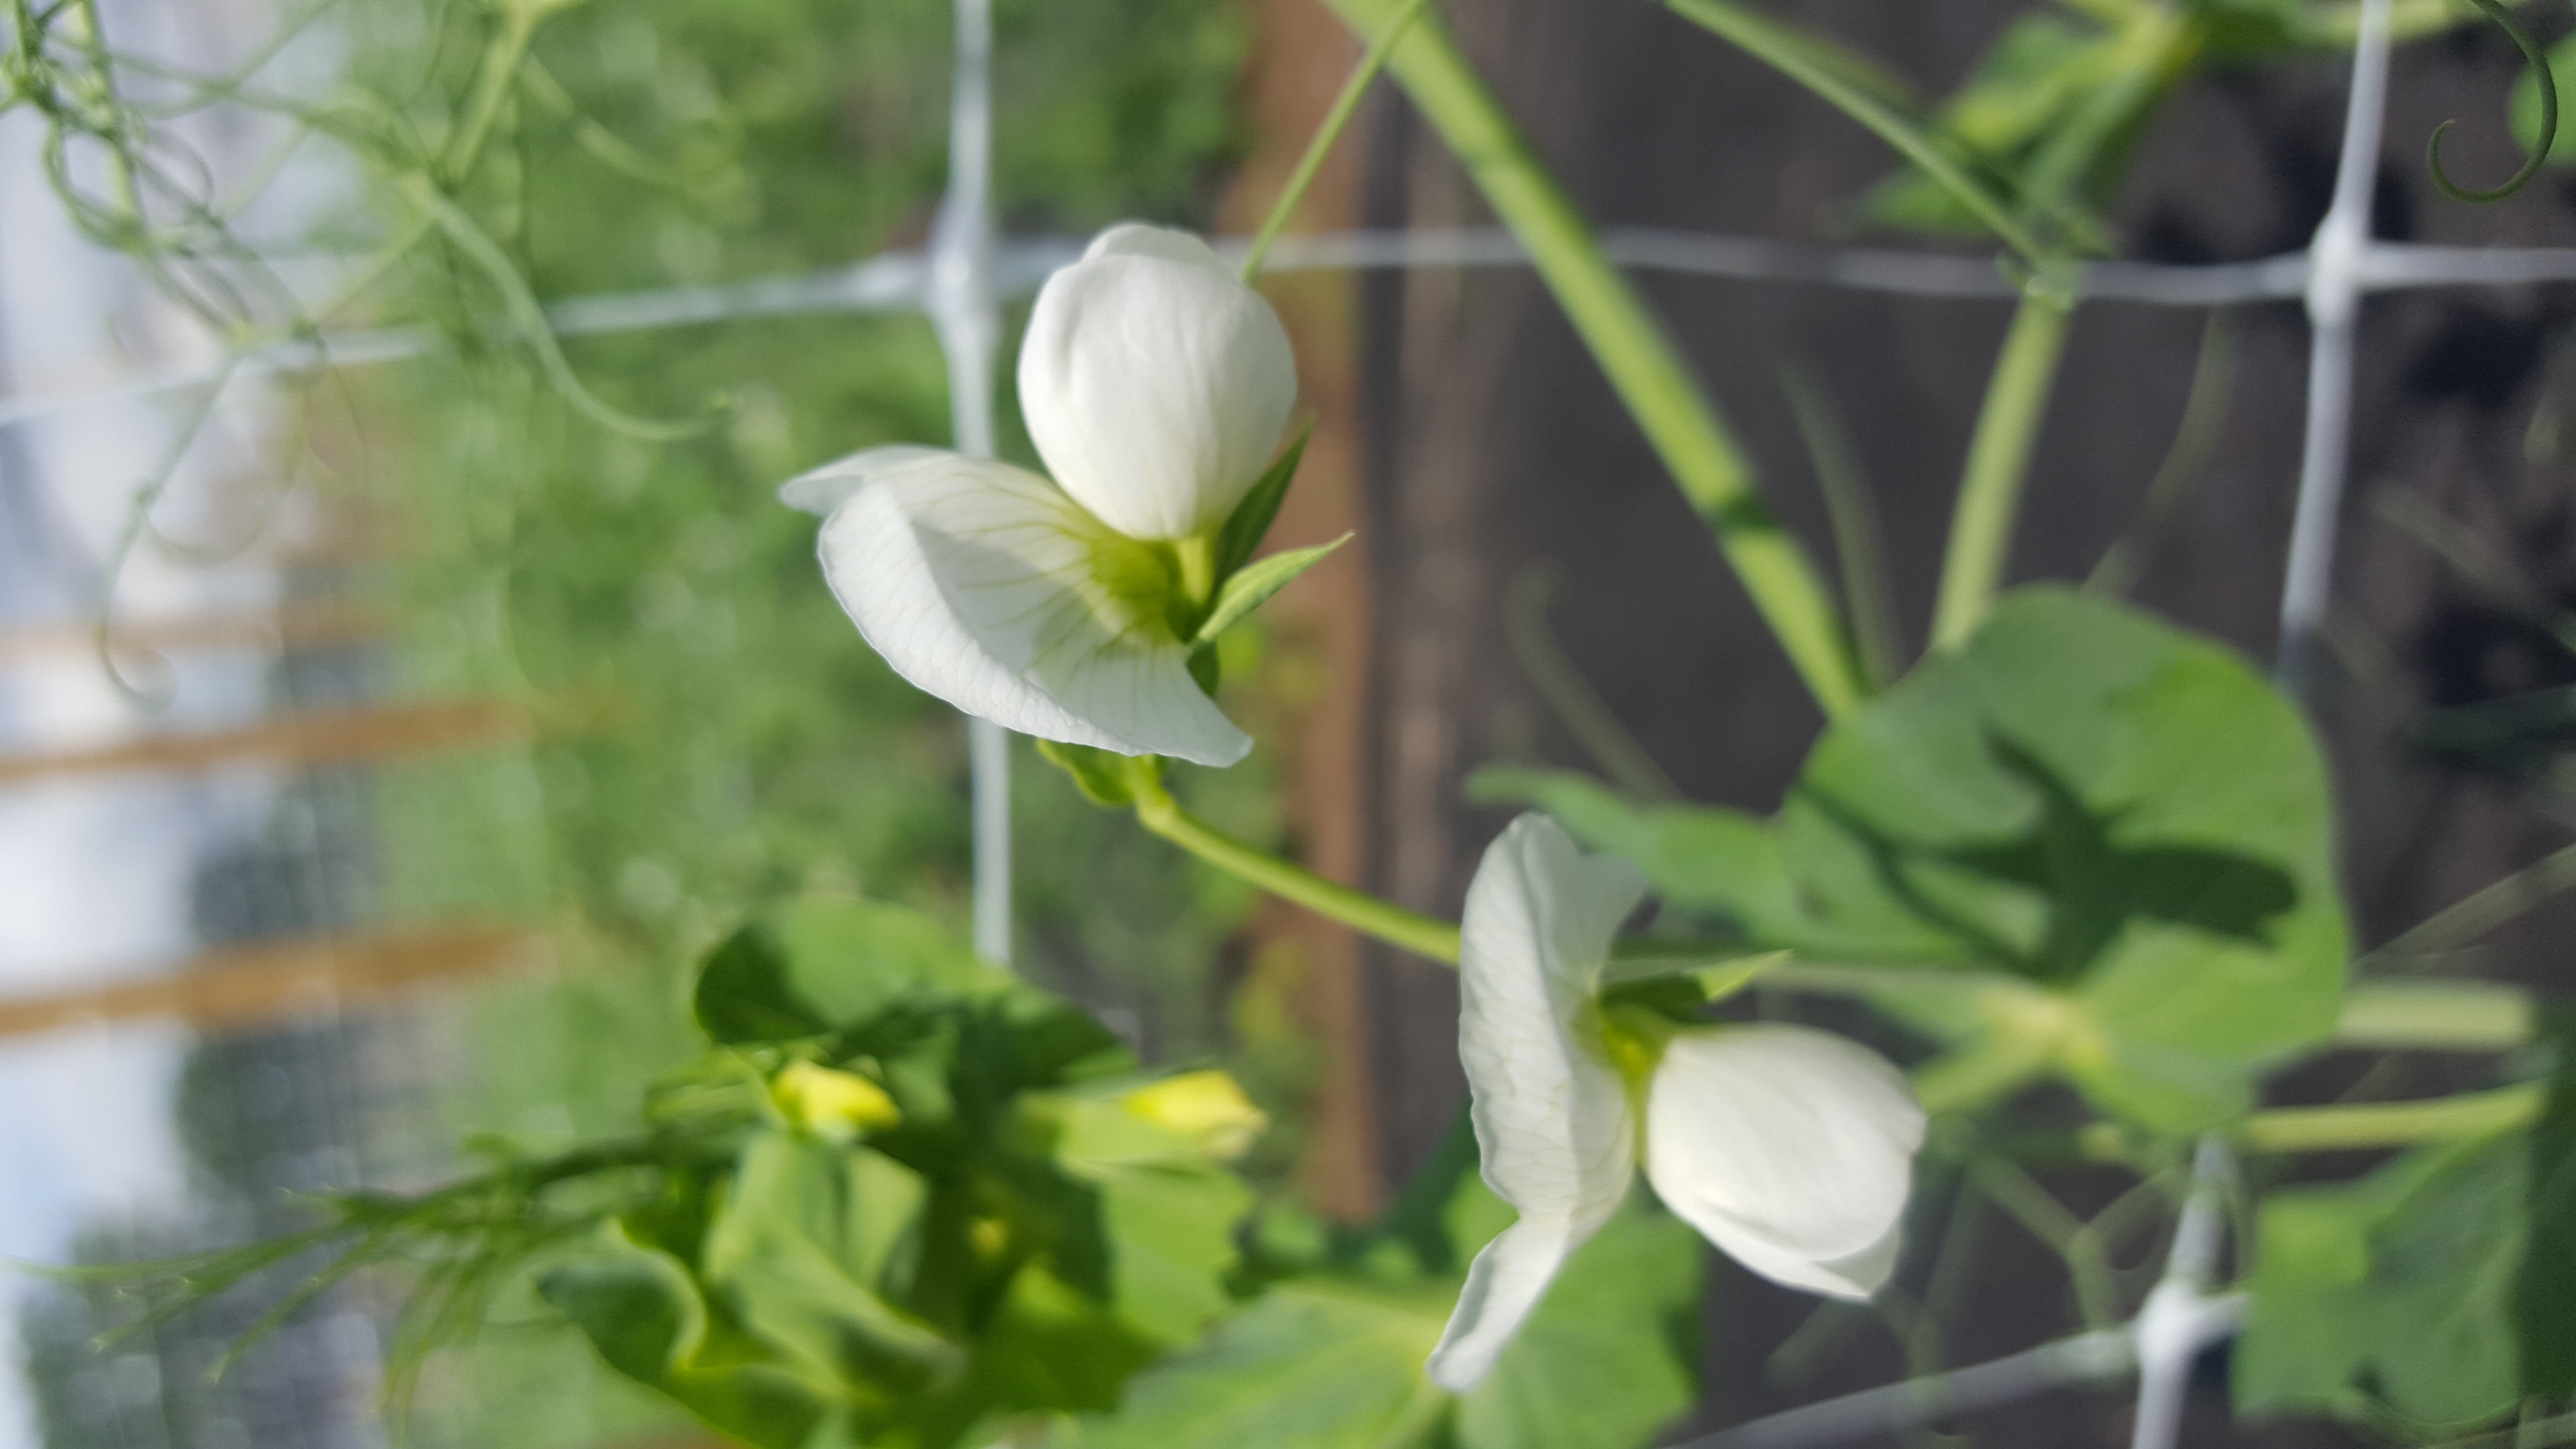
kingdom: Plantae
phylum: Tracheophyta
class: Magnoliopsida
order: Fabales
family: Fabaceae
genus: Lathyrus
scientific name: Lathyrus oleraceus
